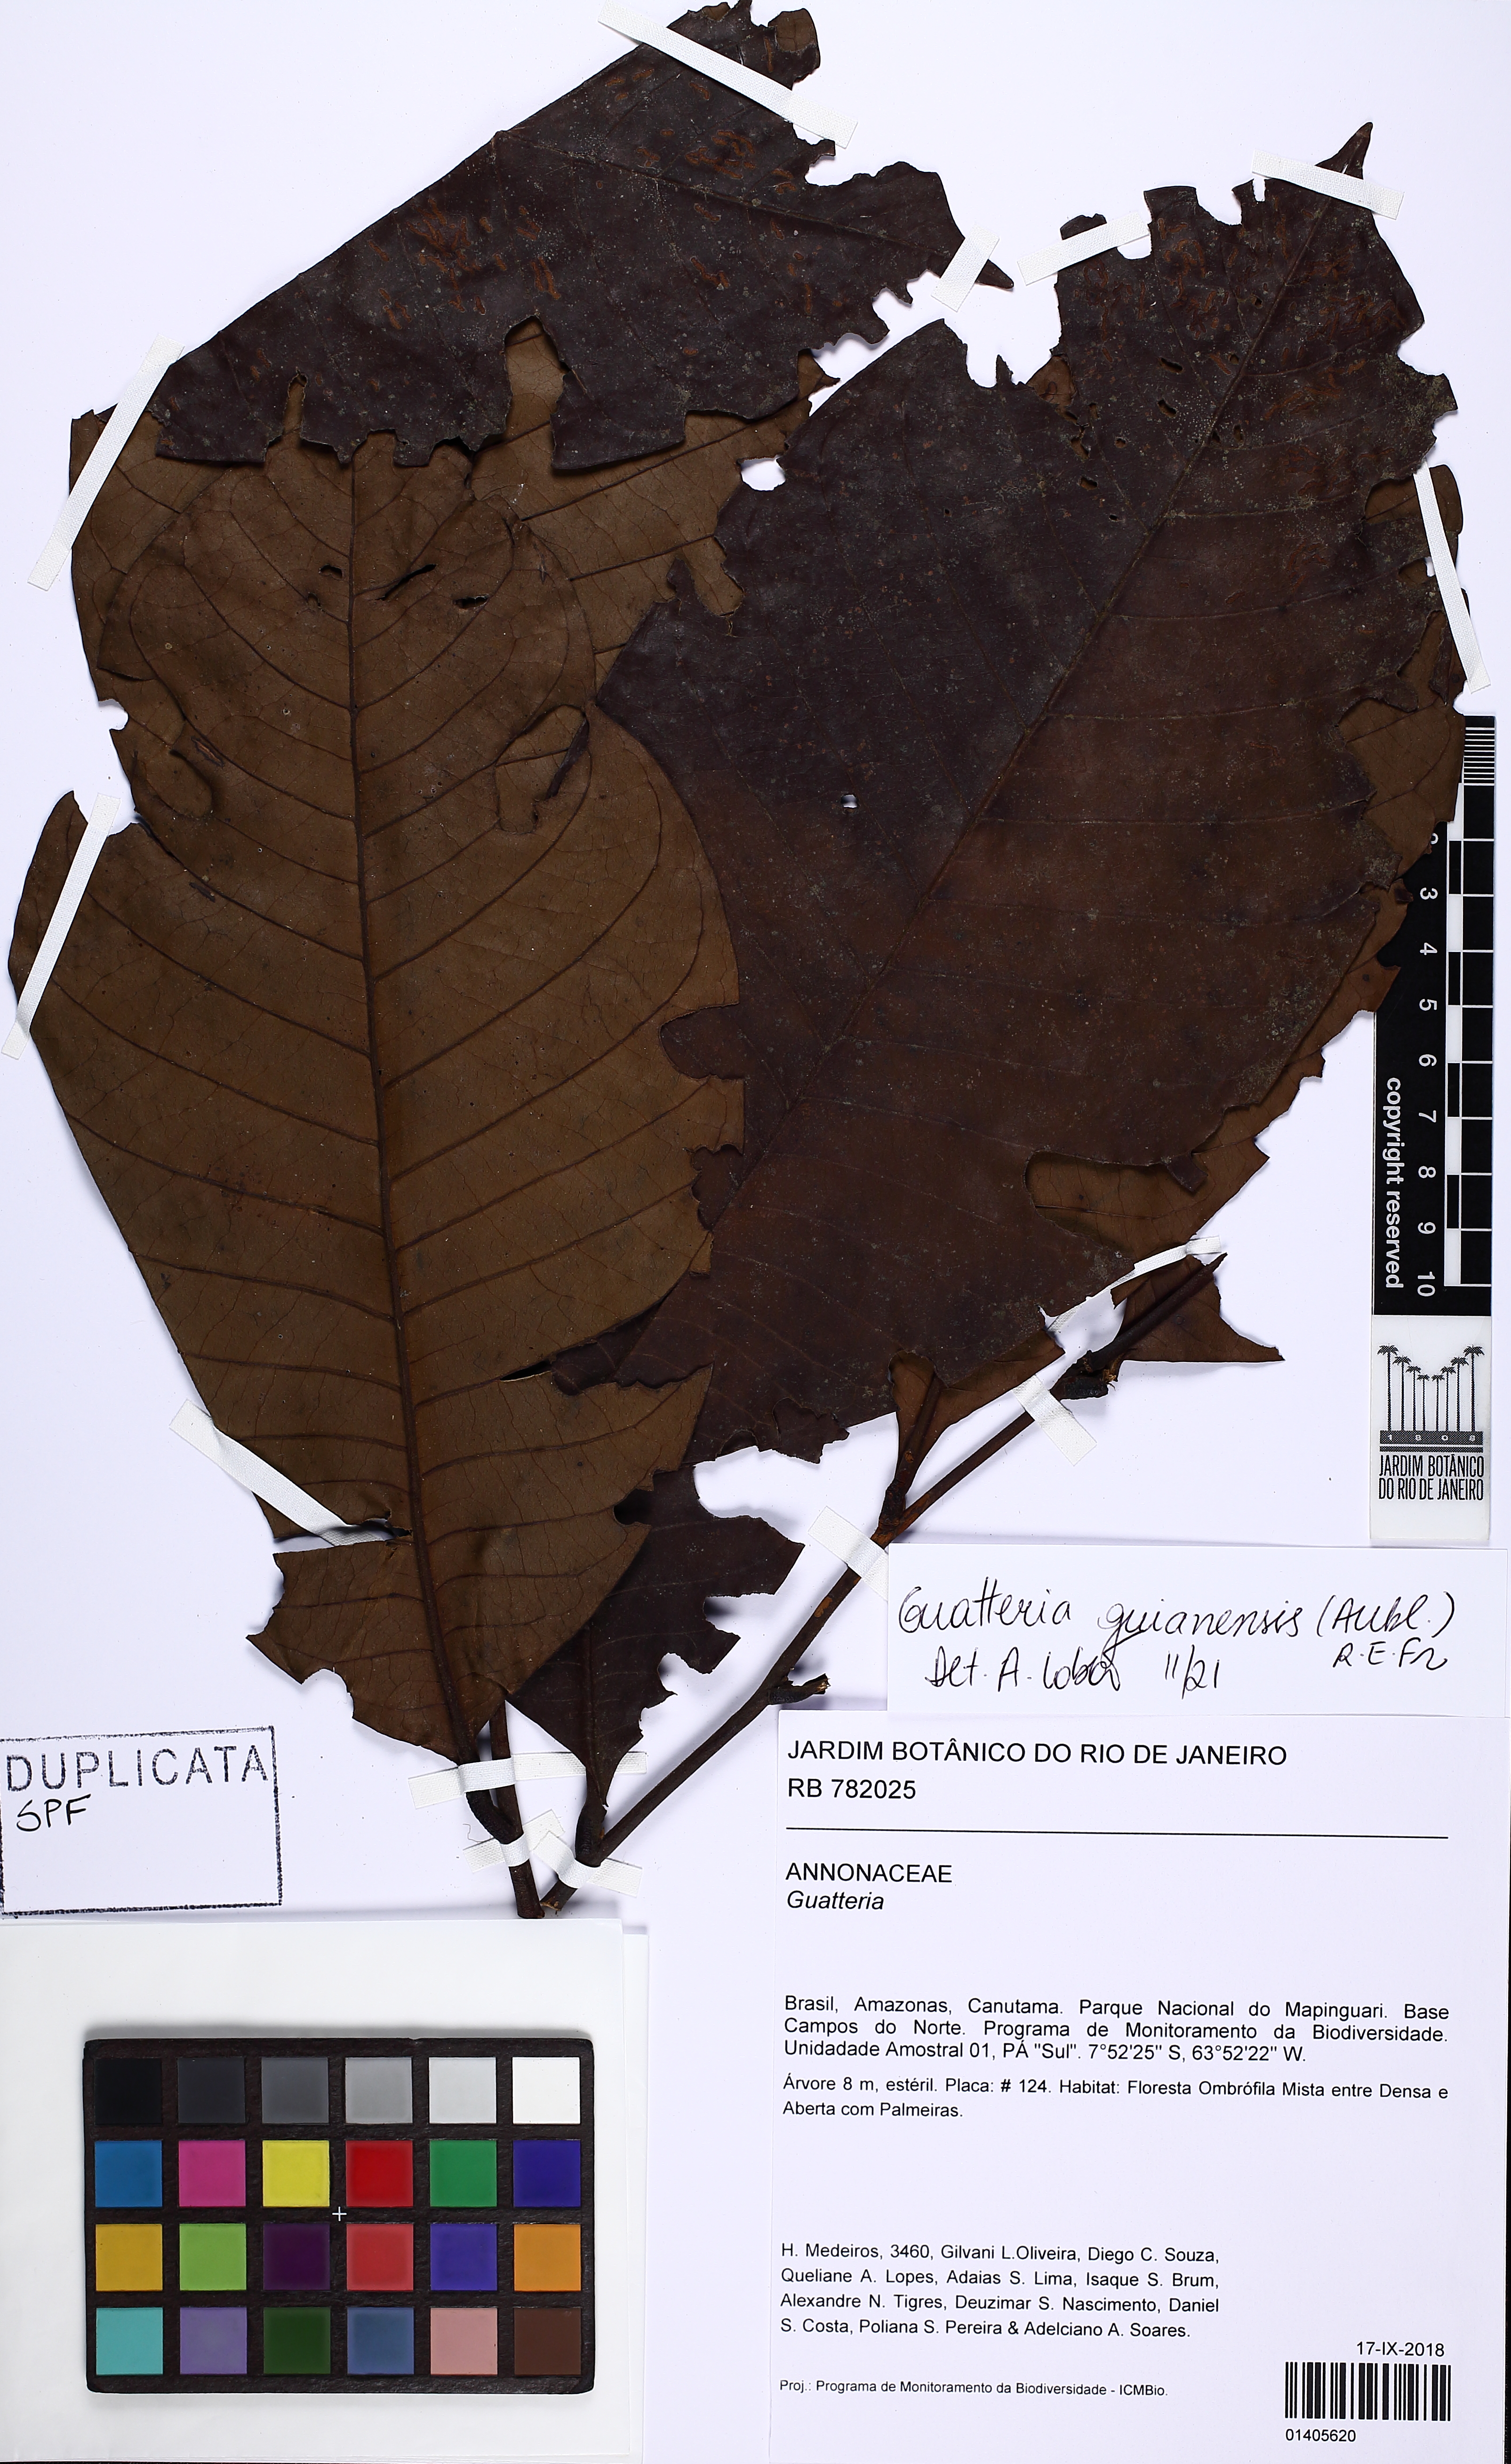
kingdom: Plantae
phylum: Tracheophyta
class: Magnoliopsida
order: Magnoliales
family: Annonaceae
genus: Guatteria
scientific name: Guatteria guianensis
